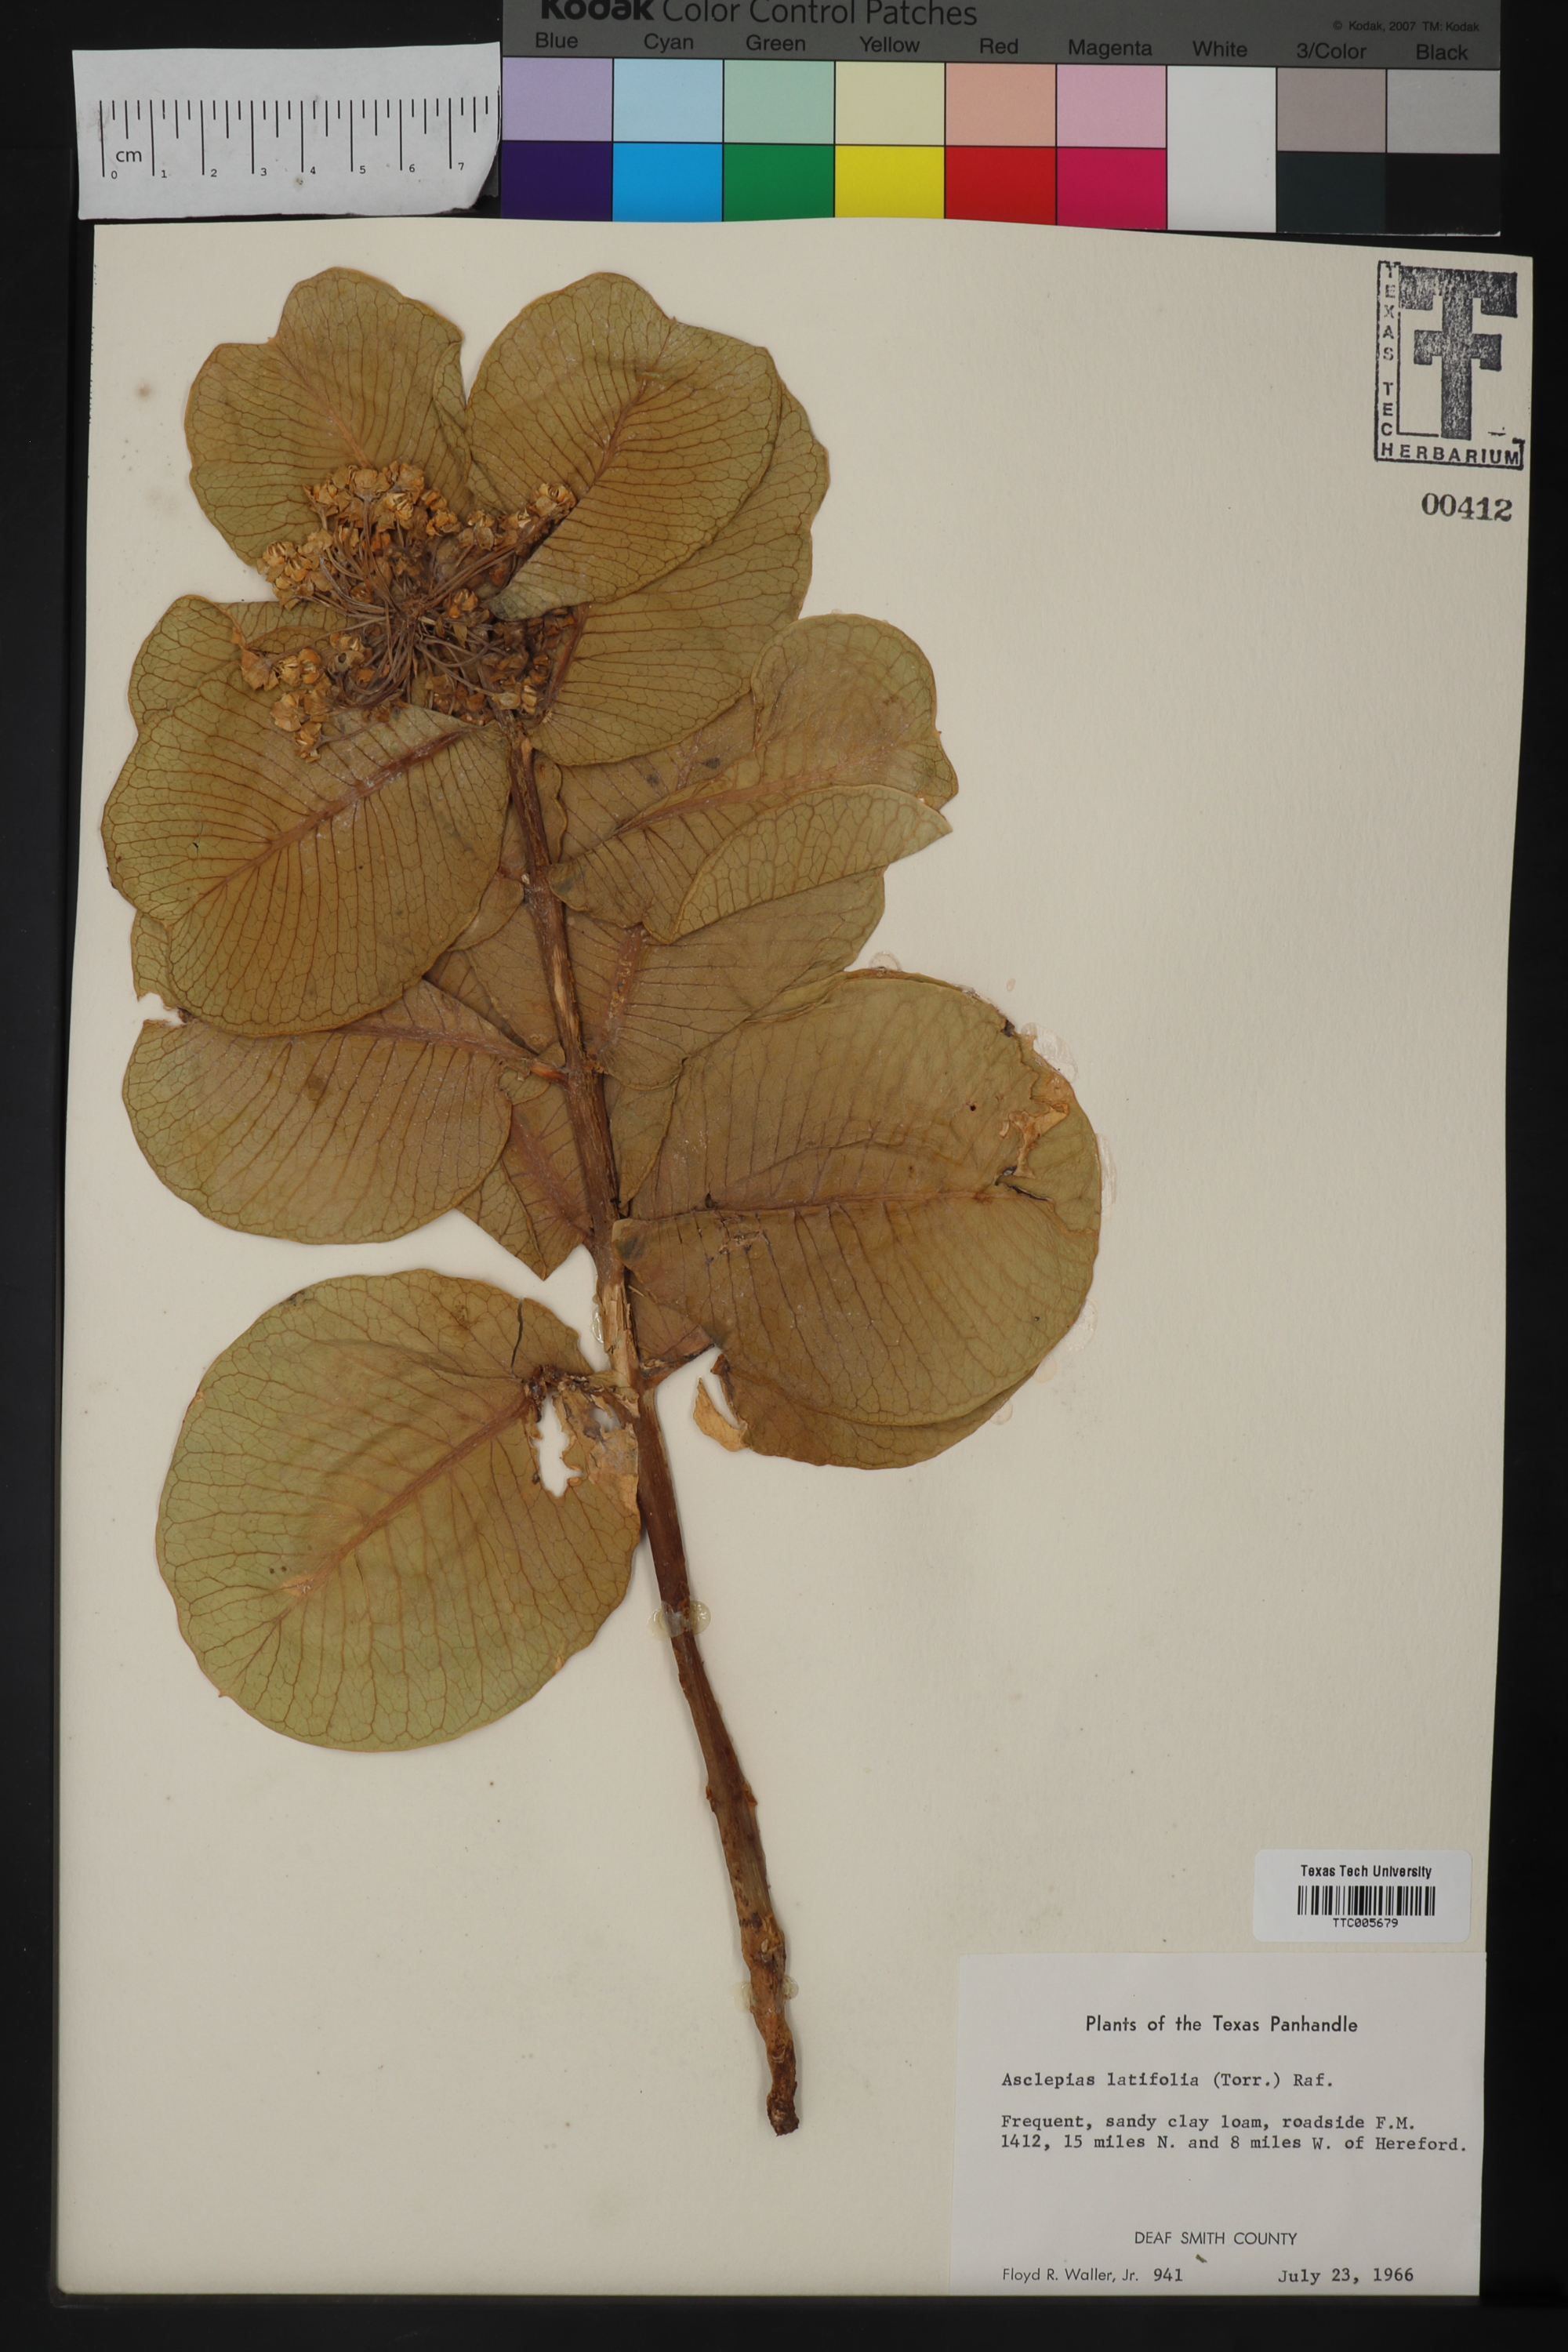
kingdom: Plantae
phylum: Tracheophyta
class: Magnoliopsida
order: Gentianales
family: Apocynaceae
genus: Asclepias
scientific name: Asclepias latifolia
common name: Broadleaf milkweed
